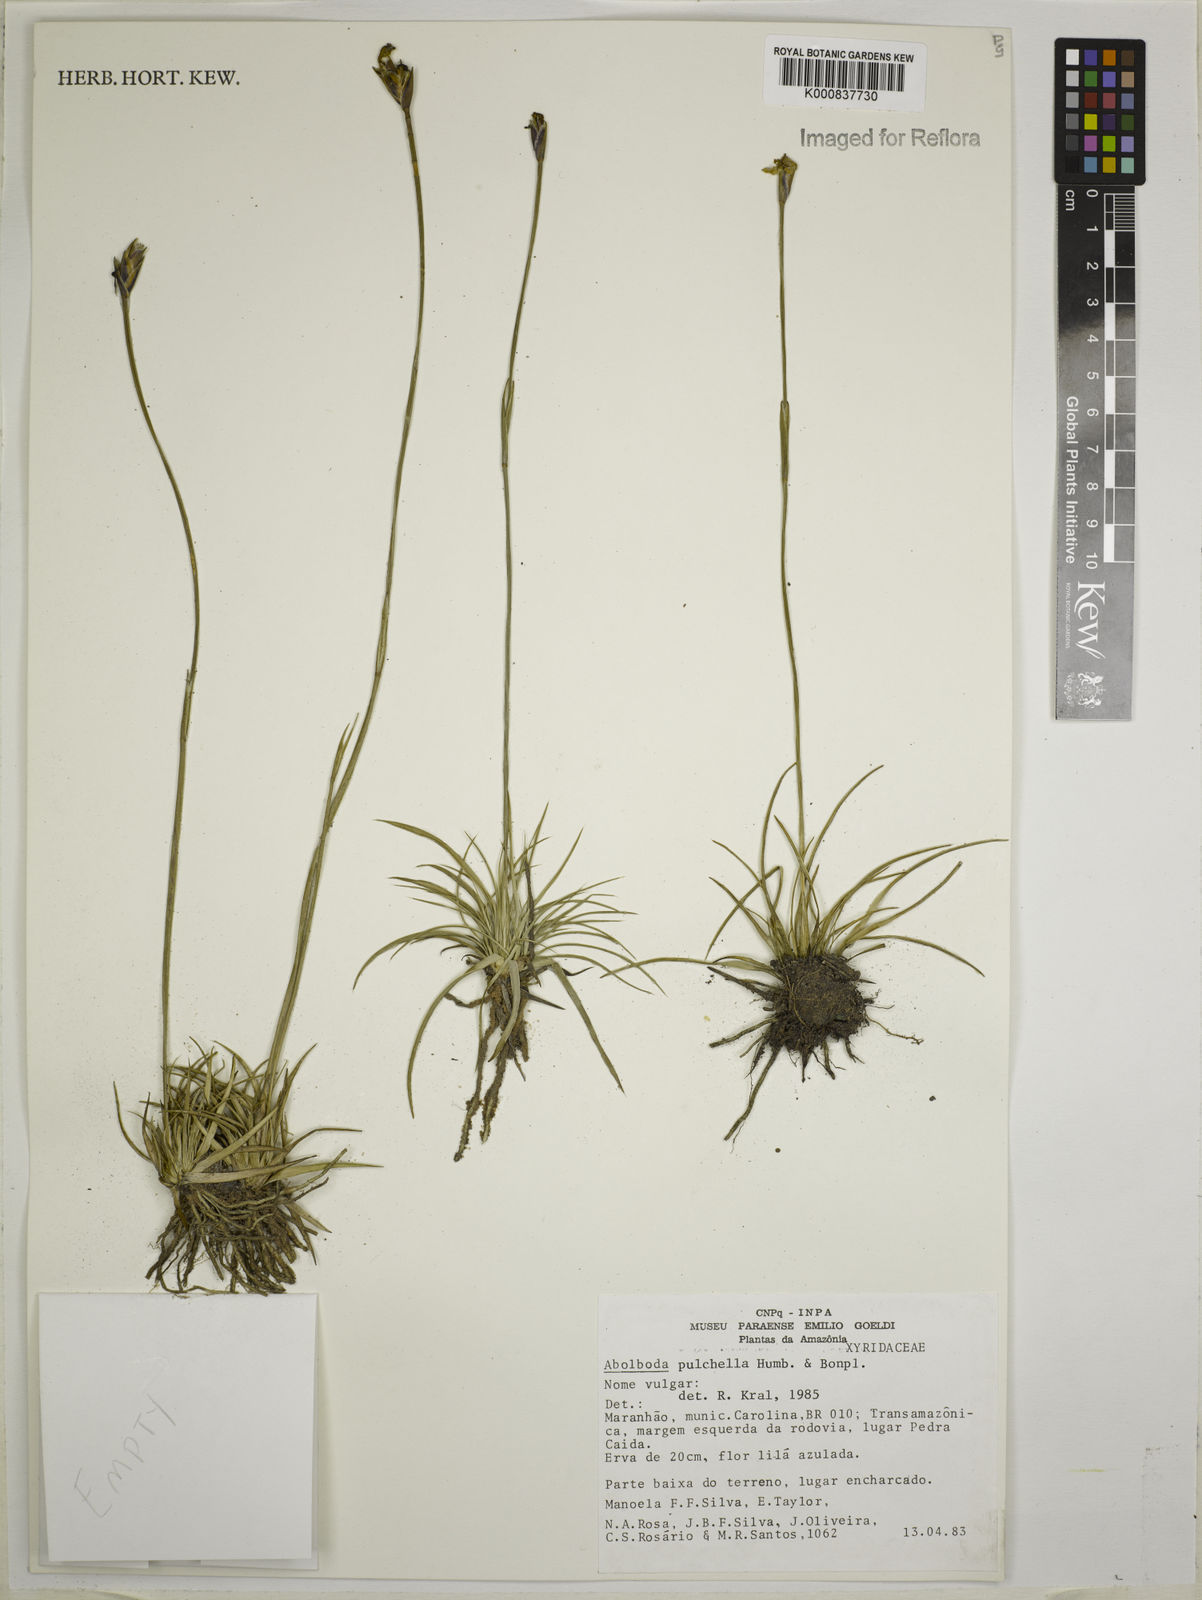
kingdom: Plantae
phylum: Tracheophyta
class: Liliopsida
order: Poales
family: Xyridaceae
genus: Abolboda
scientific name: Abolboda pulchella
